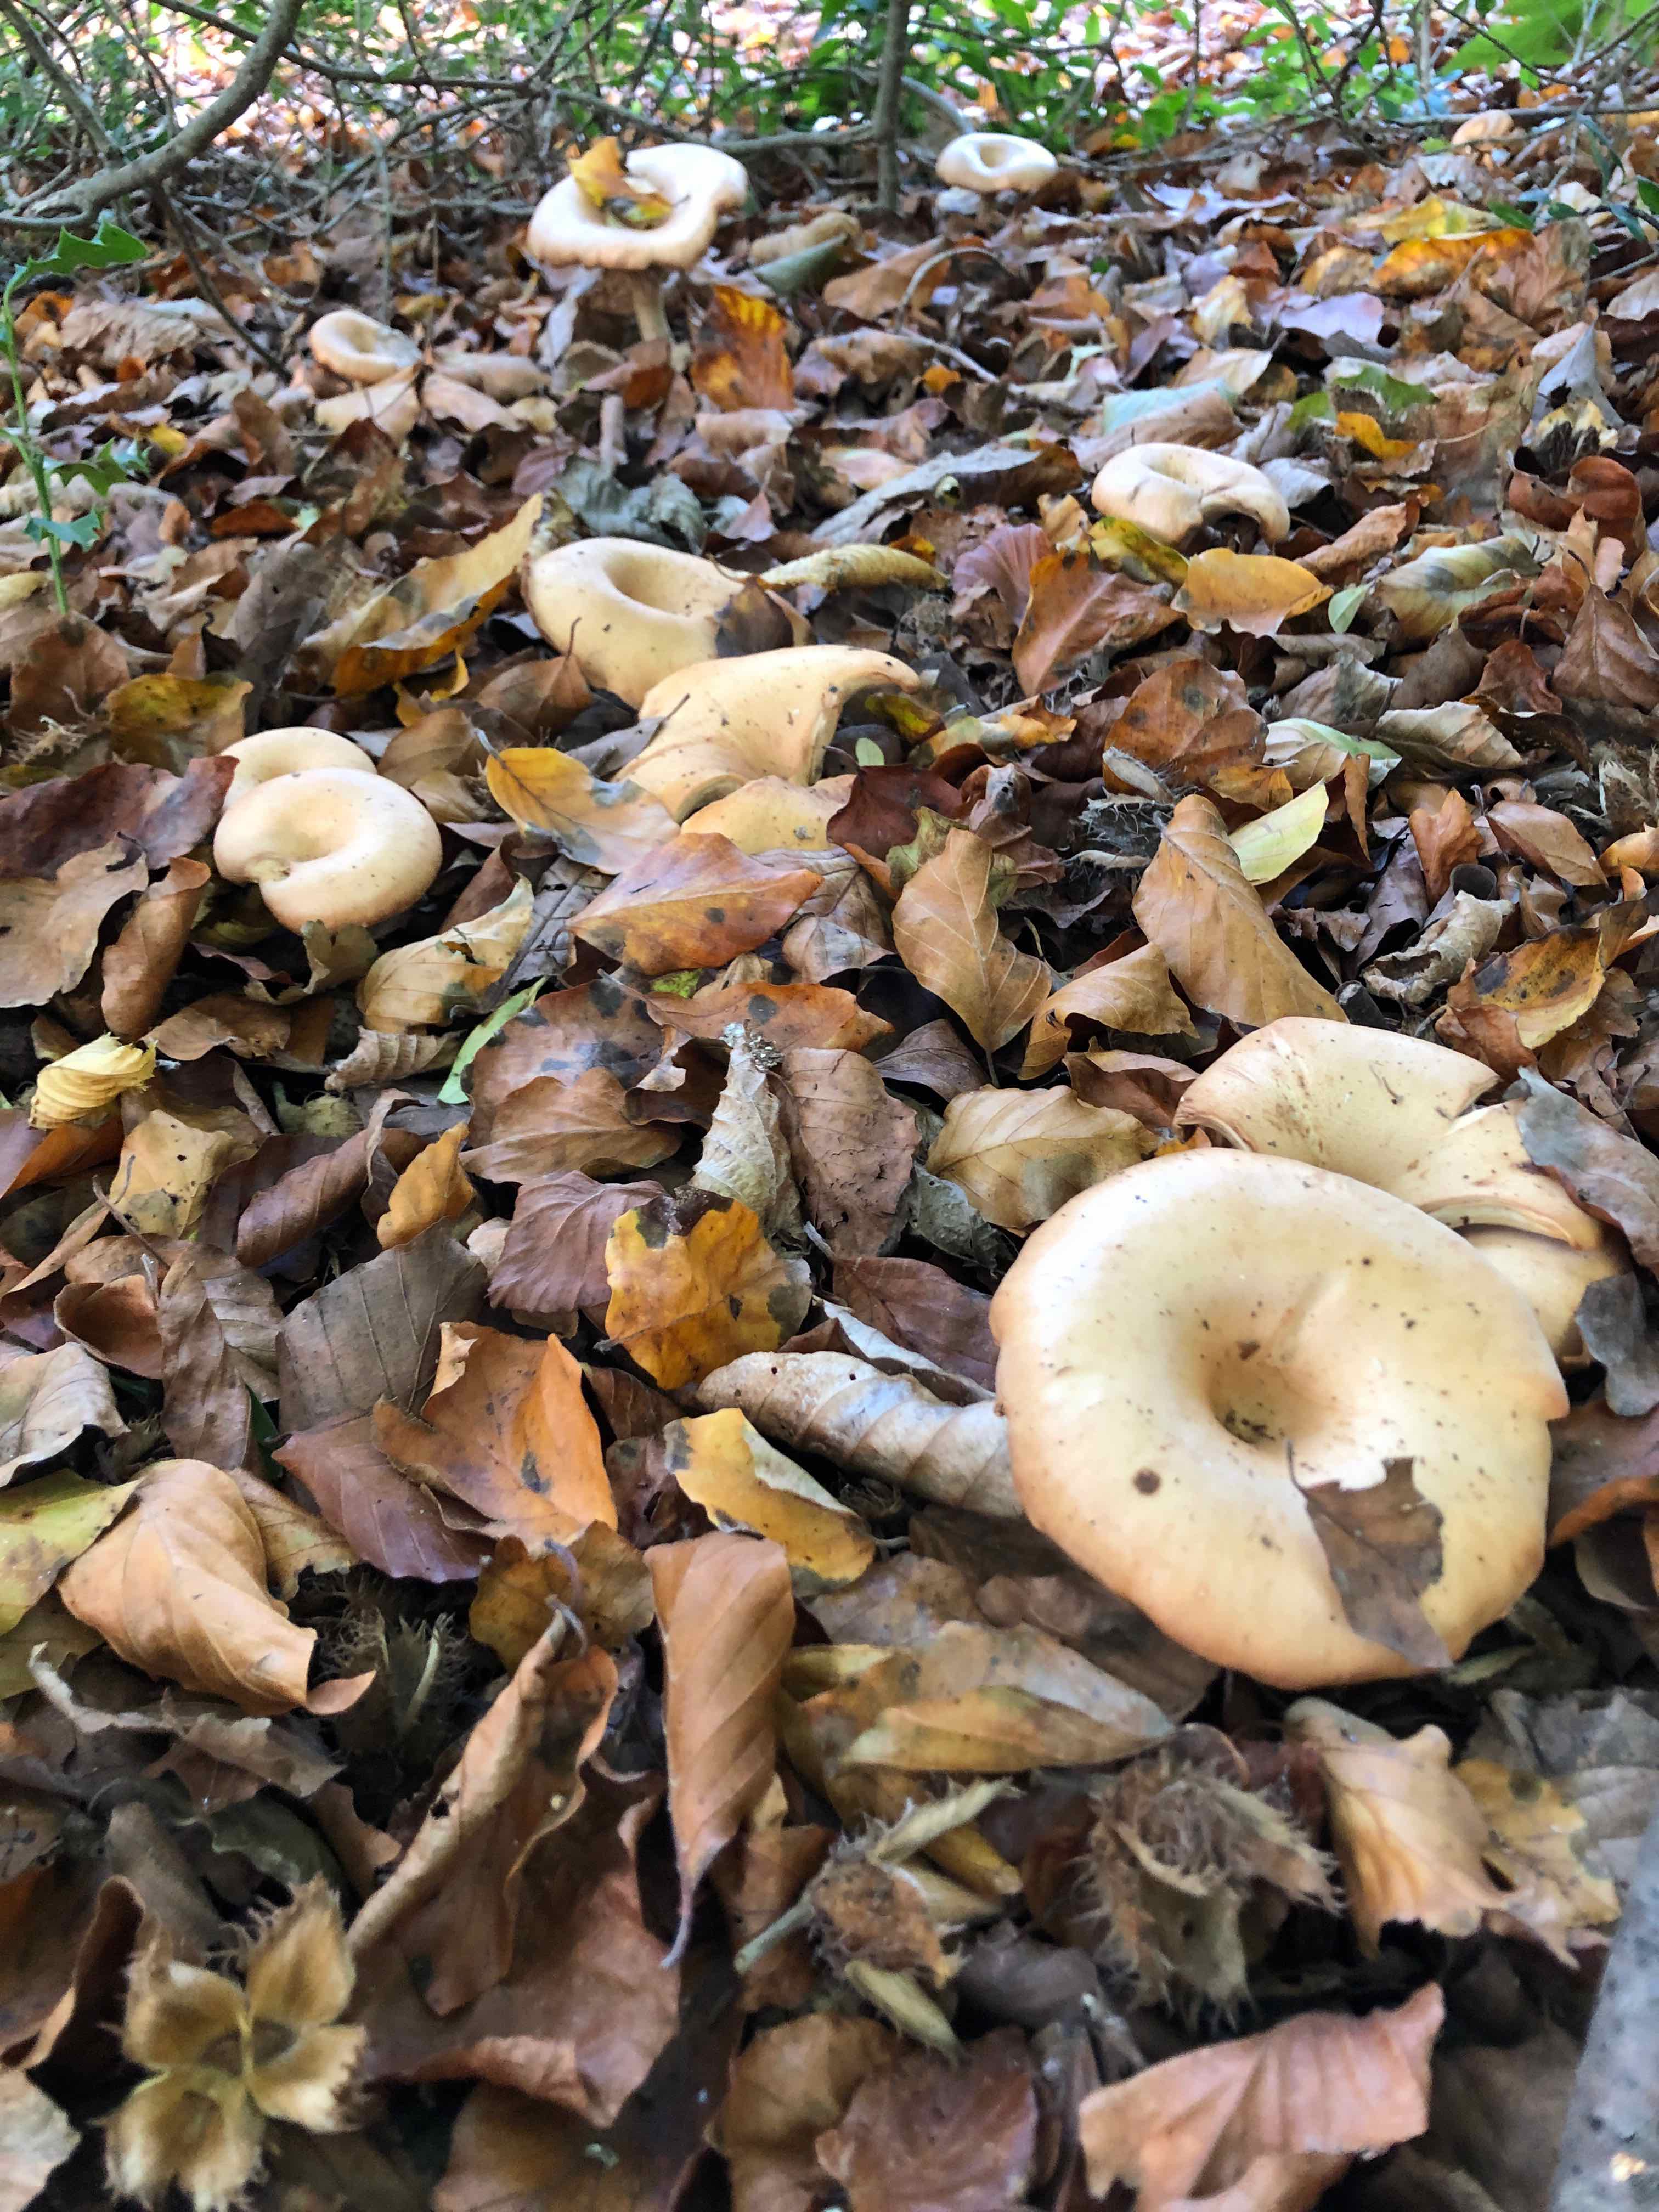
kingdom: Fungi
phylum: Basidiomycota
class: Agaricomycetes
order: Agaricales
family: Tricholomataceae
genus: Paralepista
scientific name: Paralepista flaccida
